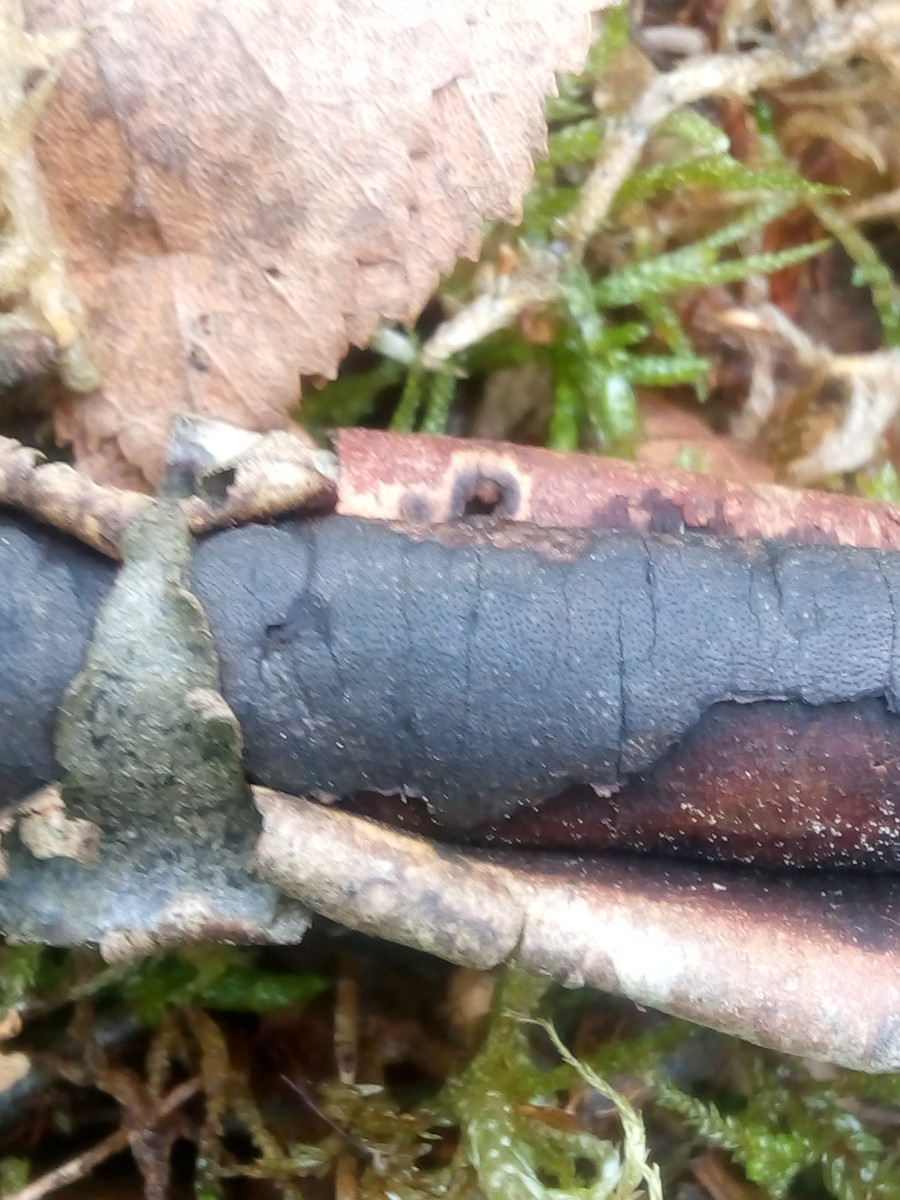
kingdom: Fungi
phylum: Ascomycota
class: Sordariomycetes
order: Xylariales
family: Diatrypaceae
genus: Diatrype
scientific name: Diatrype
